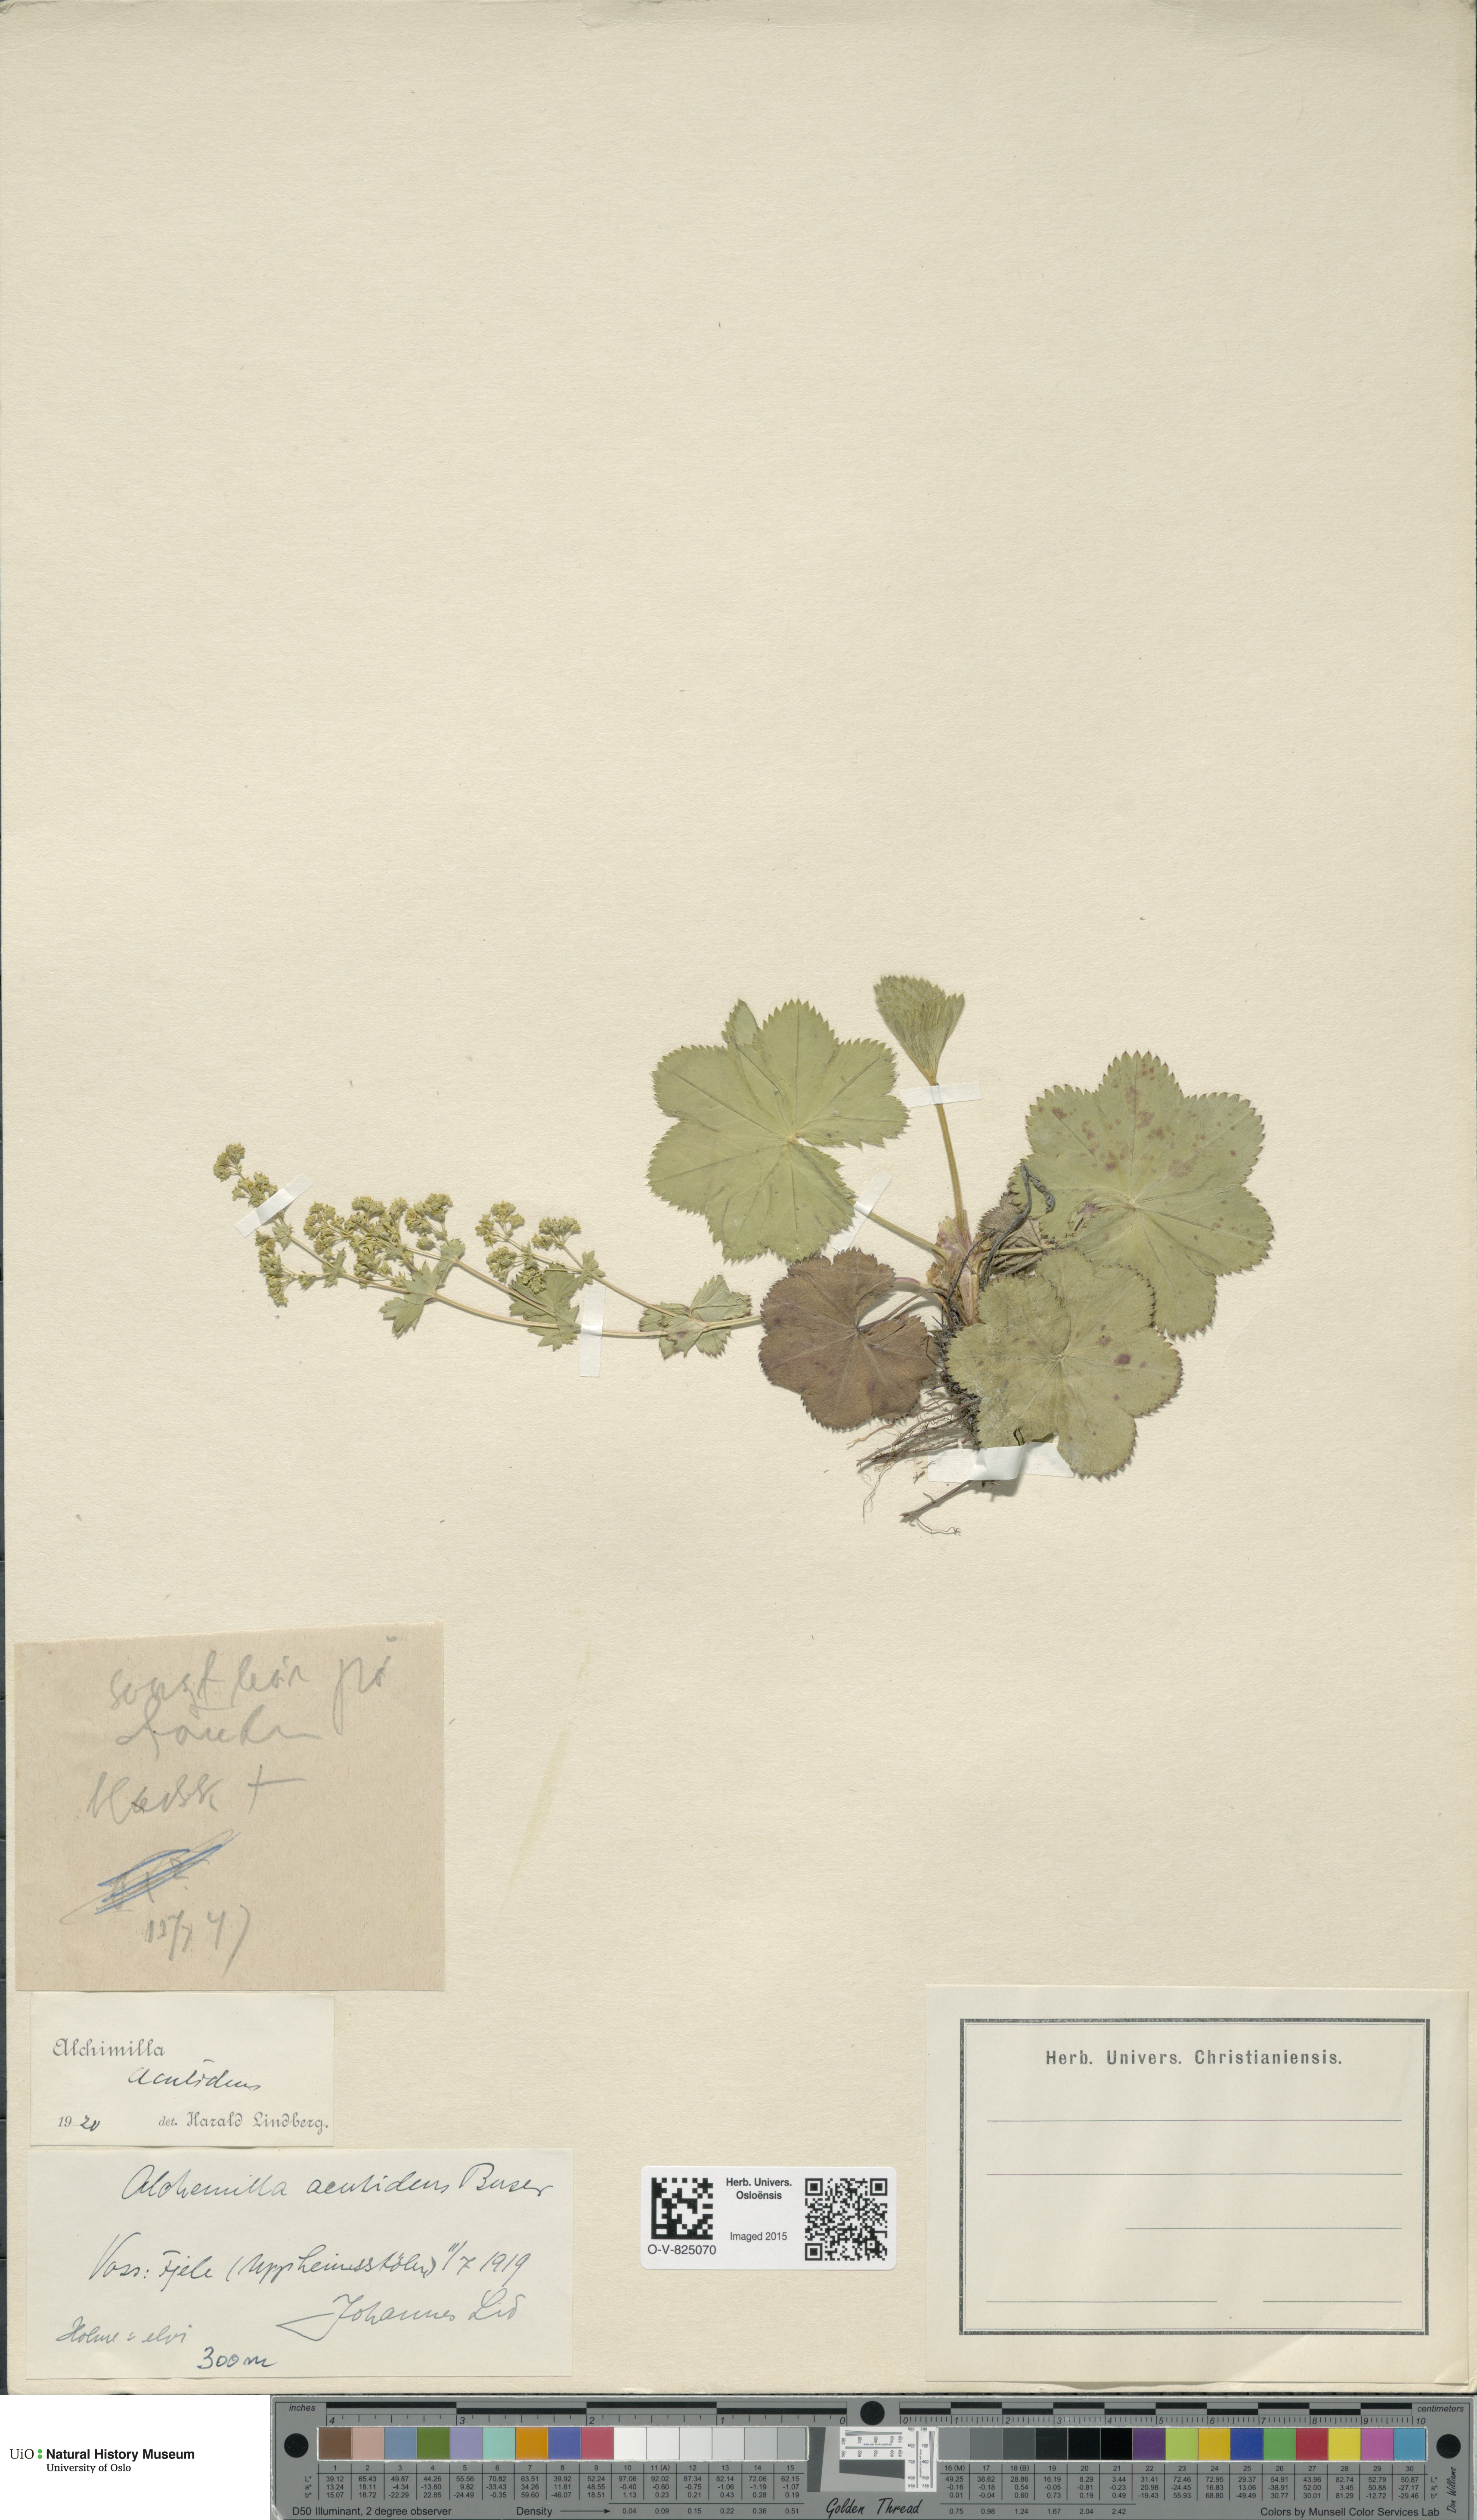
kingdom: Plantae
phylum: Tracheophyta
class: Magnoliopsida
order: Rosales
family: Rosaceae
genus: Alchemilla
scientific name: Alchemilla wichurae
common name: Rock lady's mantle
